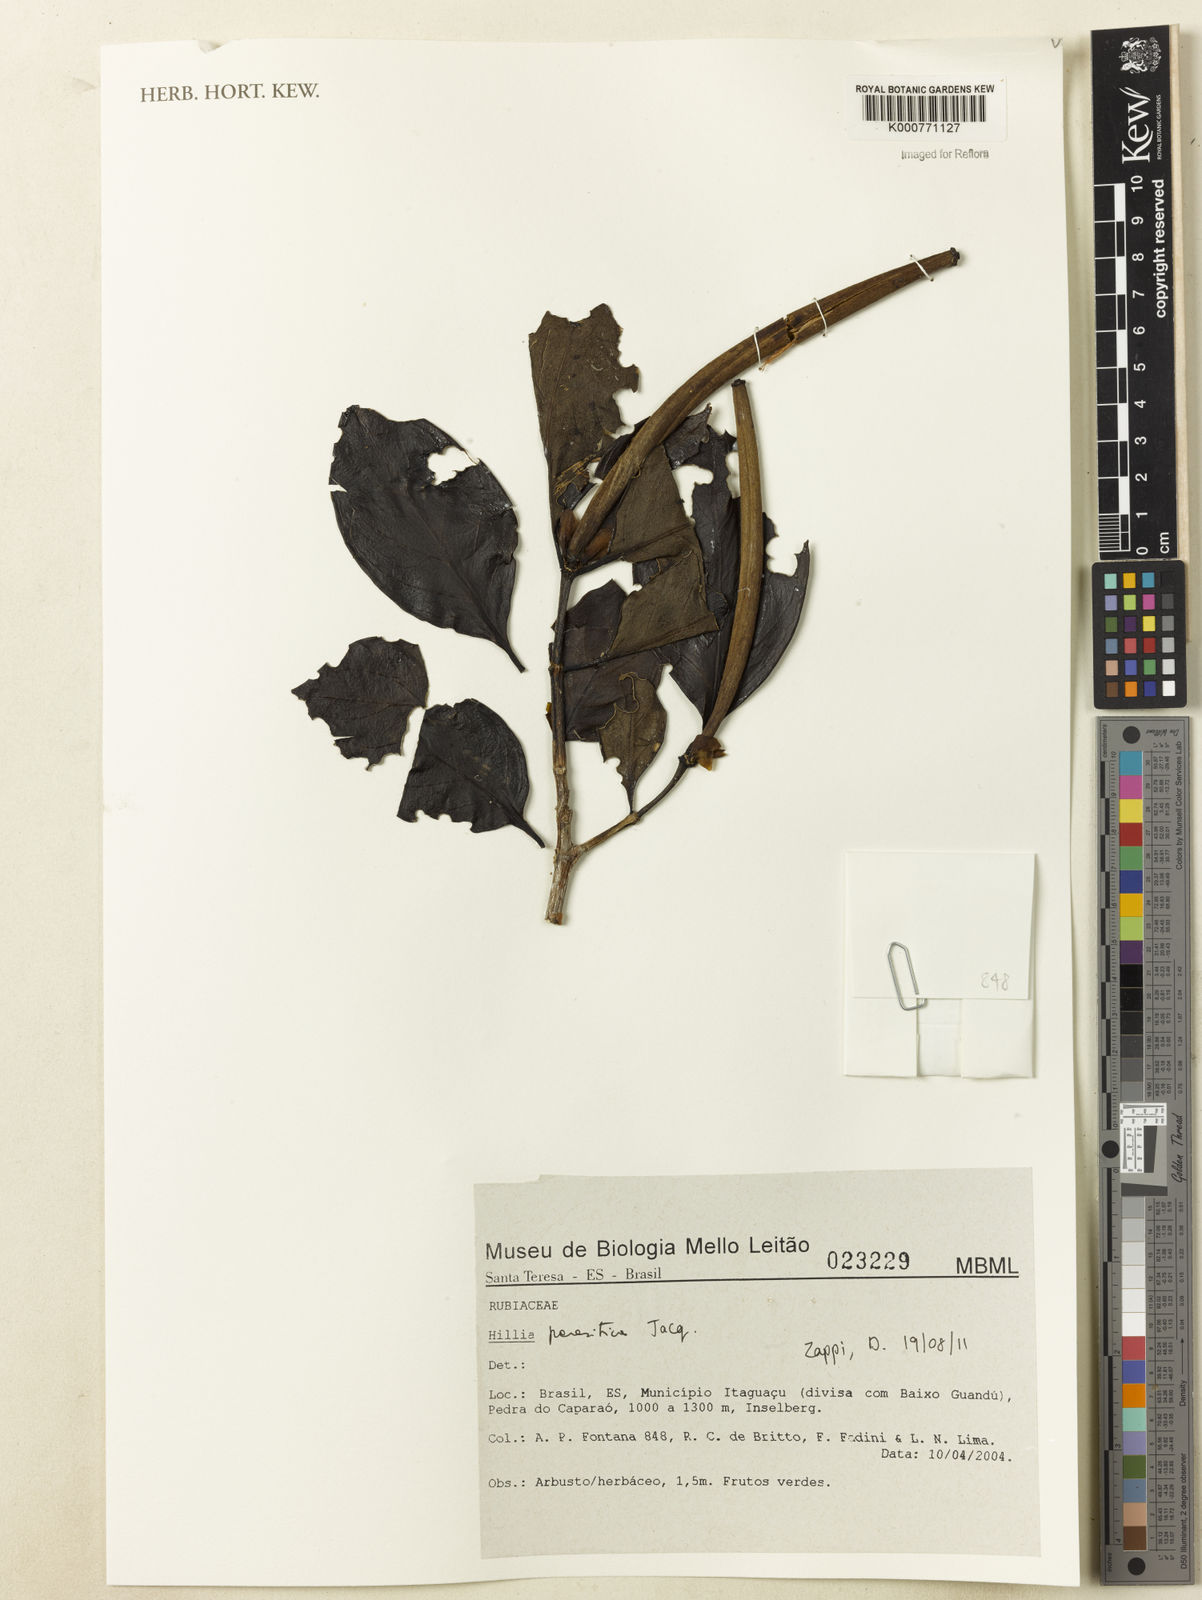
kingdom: Plantae
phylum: Tracheophyta
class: Magnoliopsida
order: Gentianales
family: Rubiaceae
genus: Hillia
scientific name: Hillia parasitica
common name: Morning star
